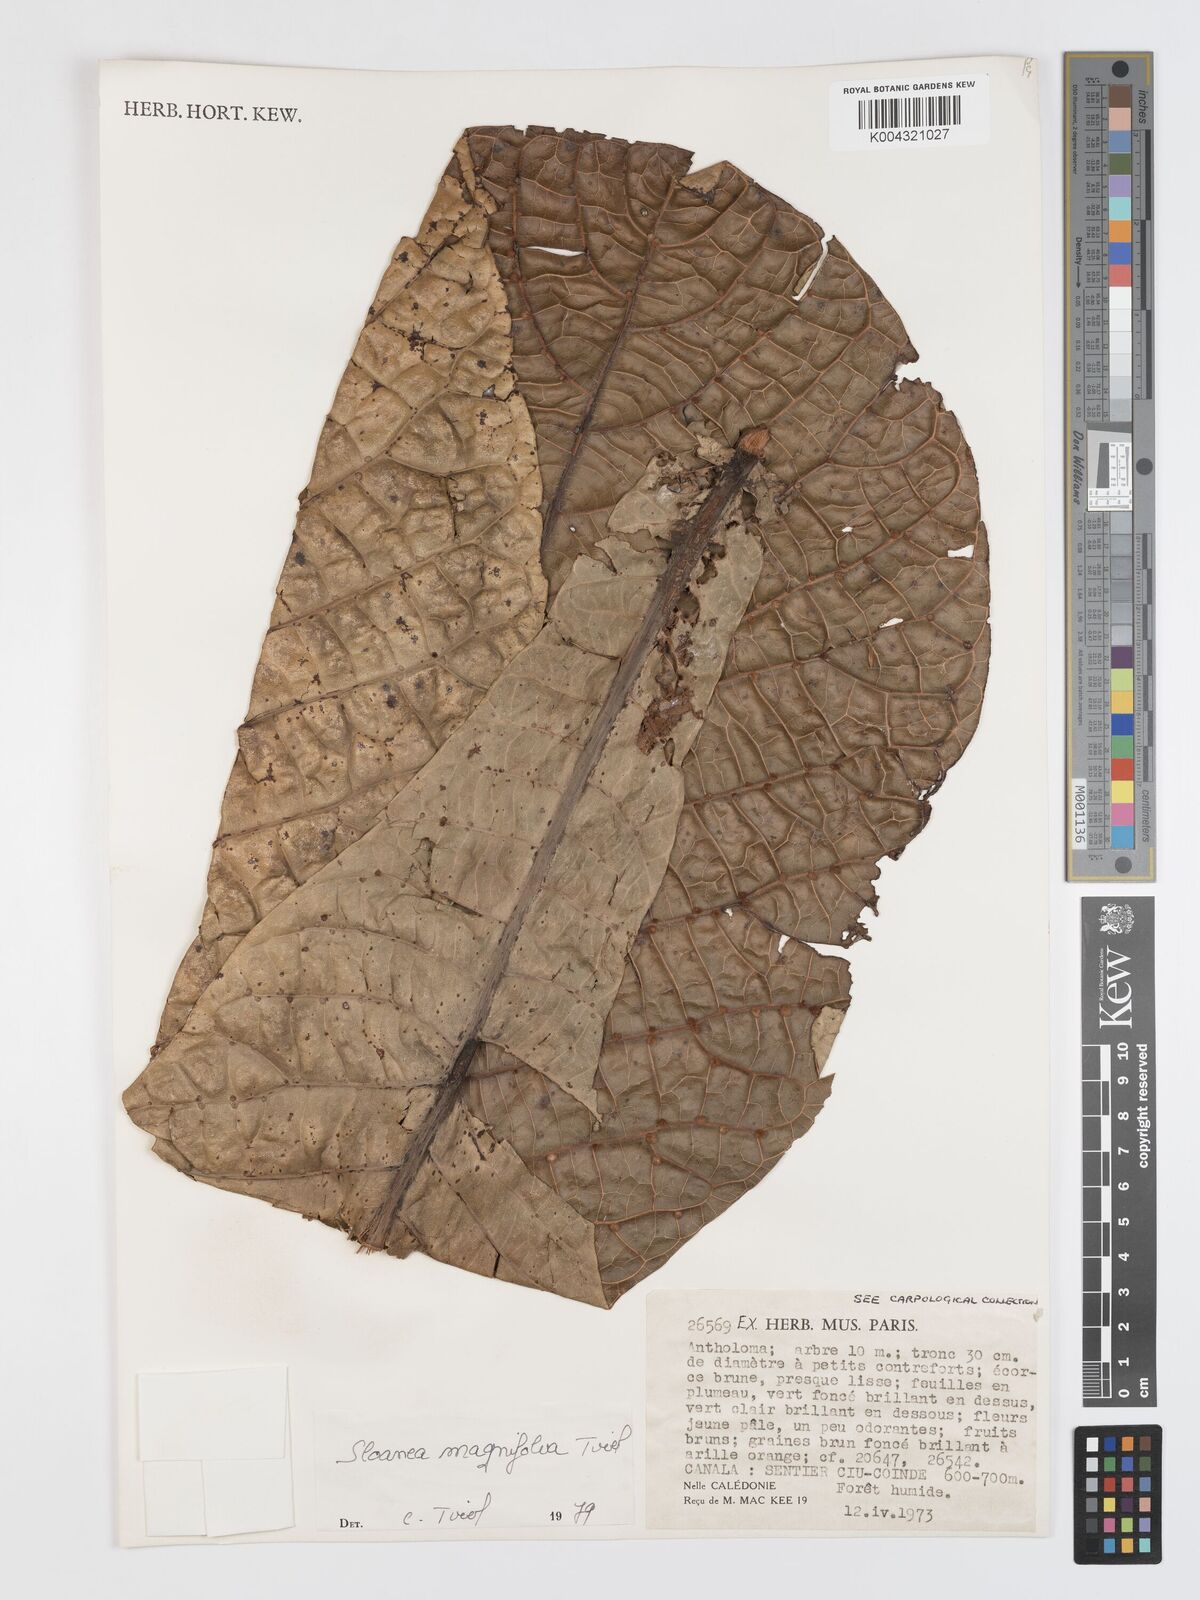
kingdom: Plantae
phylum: Tracheophyta
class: Magnoliopsida
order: Oxalidales
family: Elaeocarpaceae
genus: Sloanea
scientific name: Sloanea magnifolia
